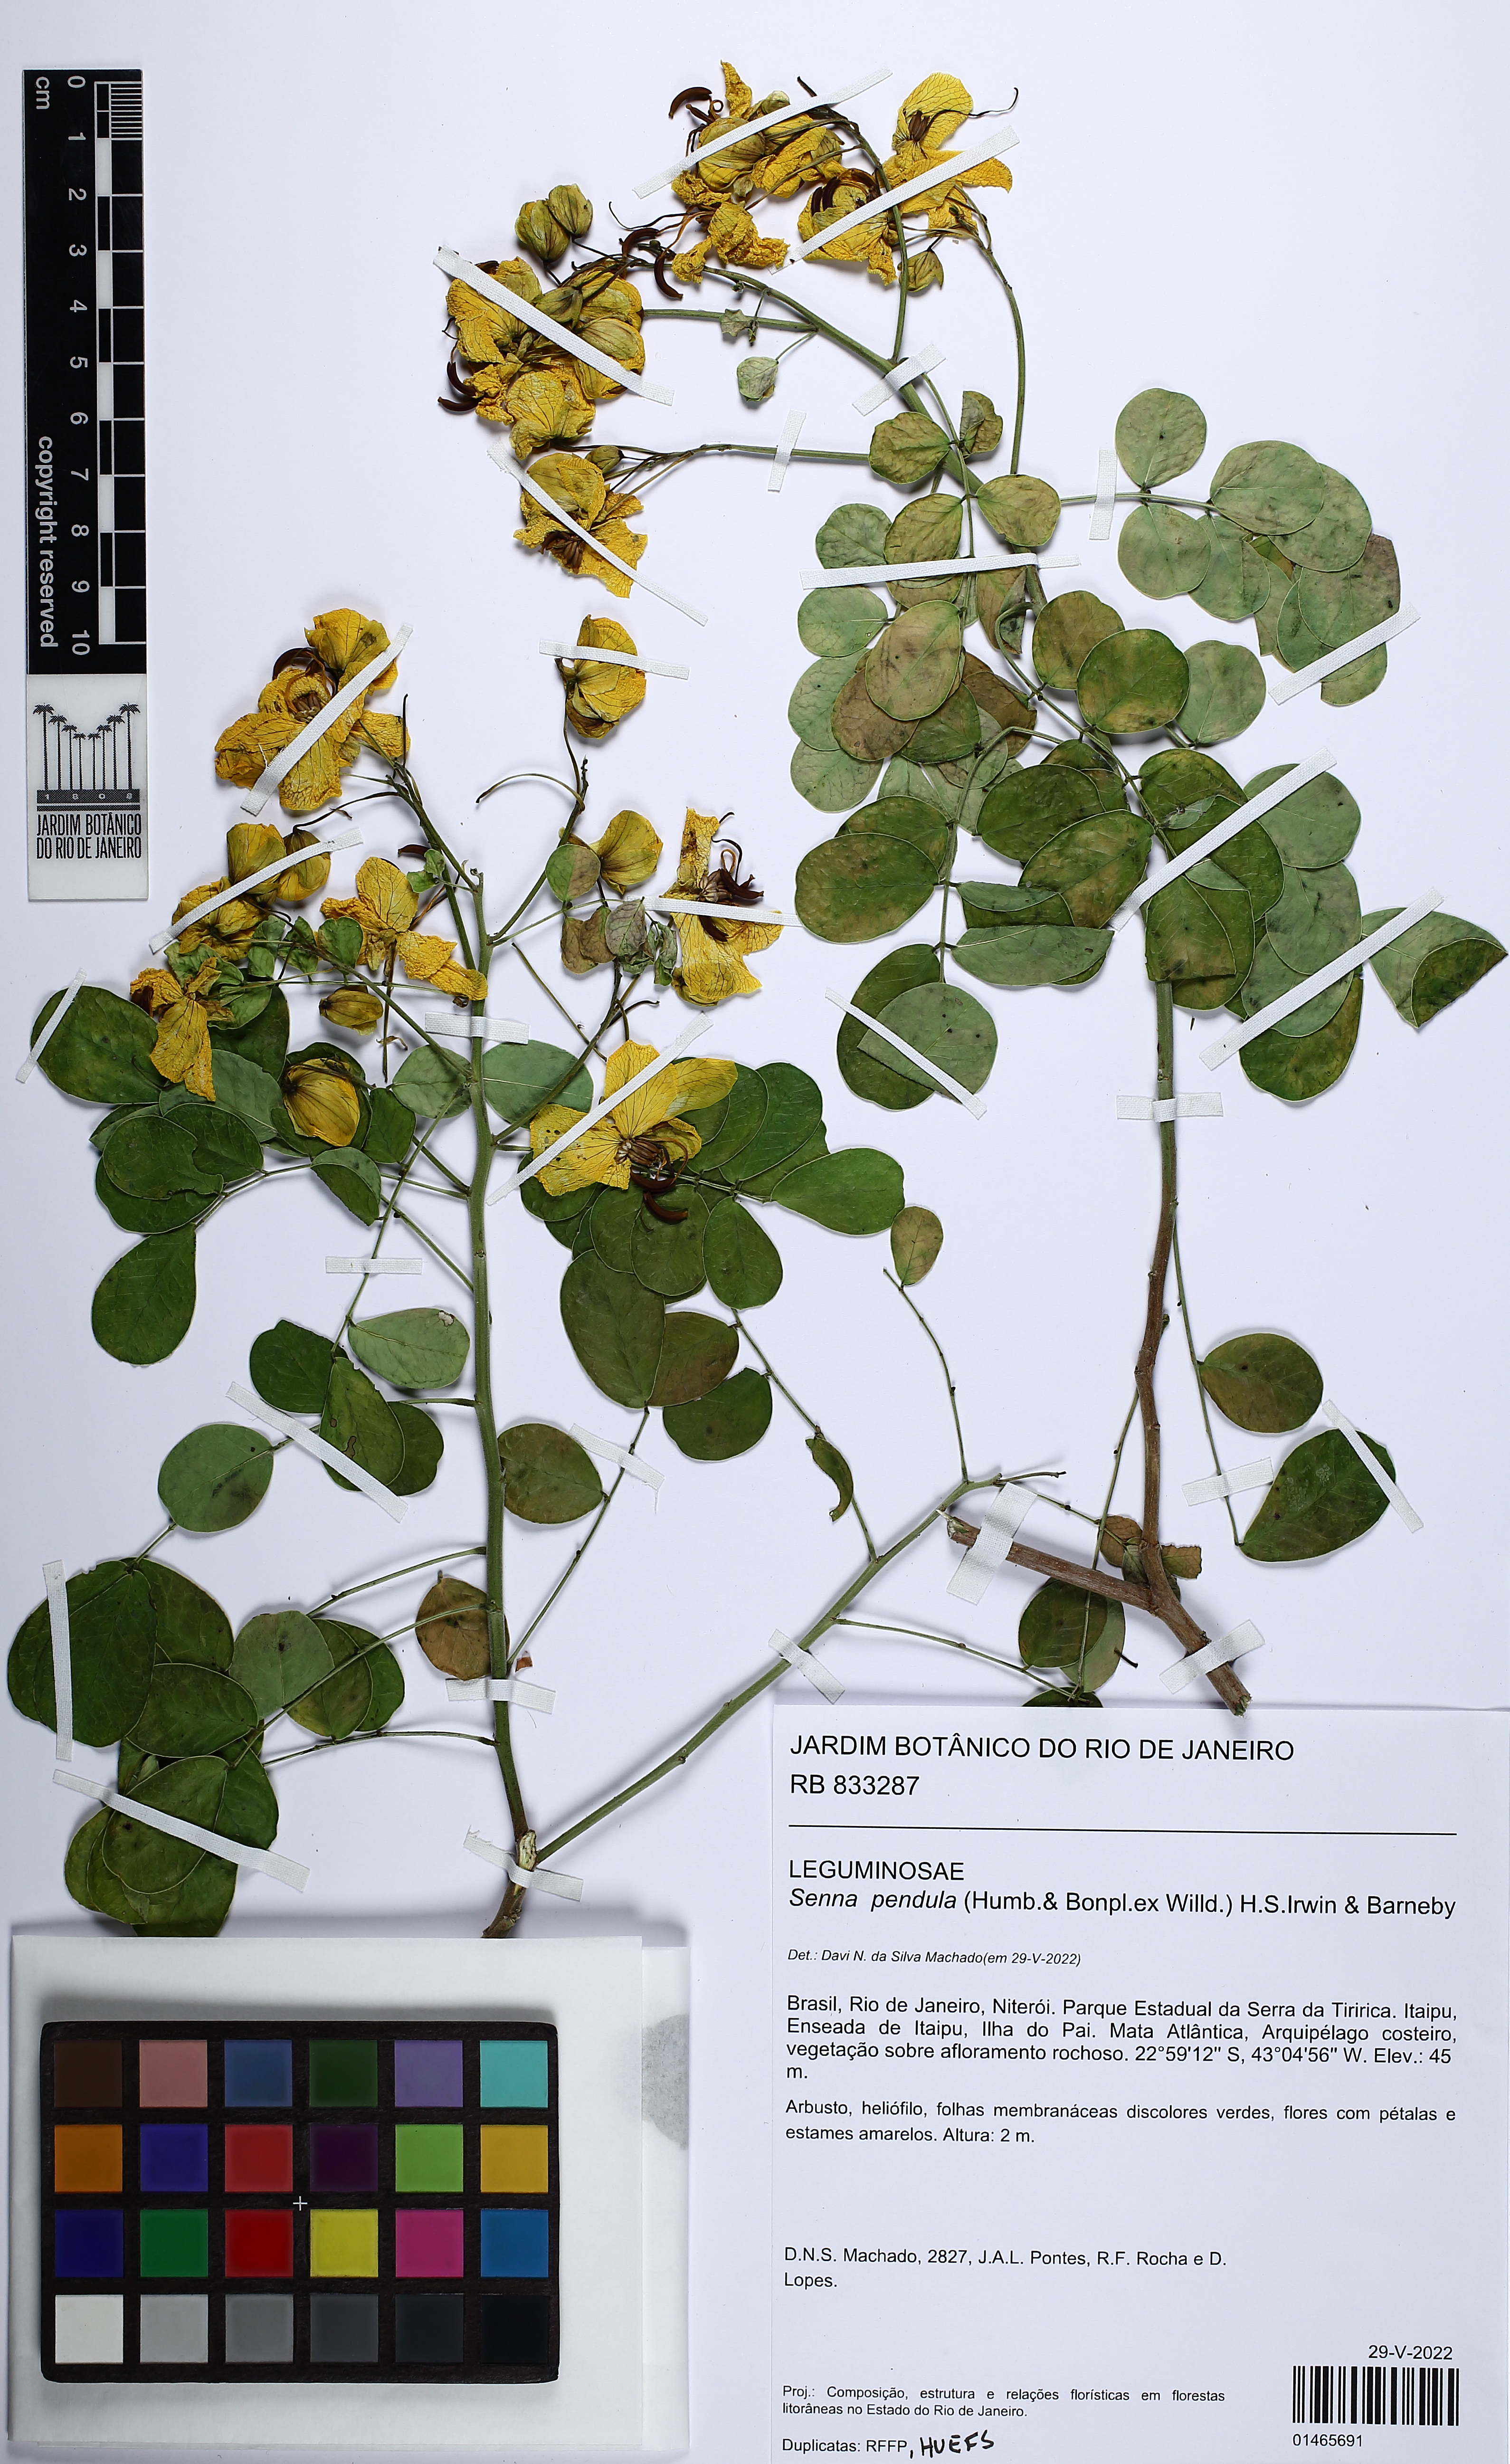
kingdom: Plantae
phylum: Tracheophyta
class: Magnoliopsida
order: Fabales
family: Fabaceae
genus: Senna
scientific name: Senna pendula
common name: Easter cassia
